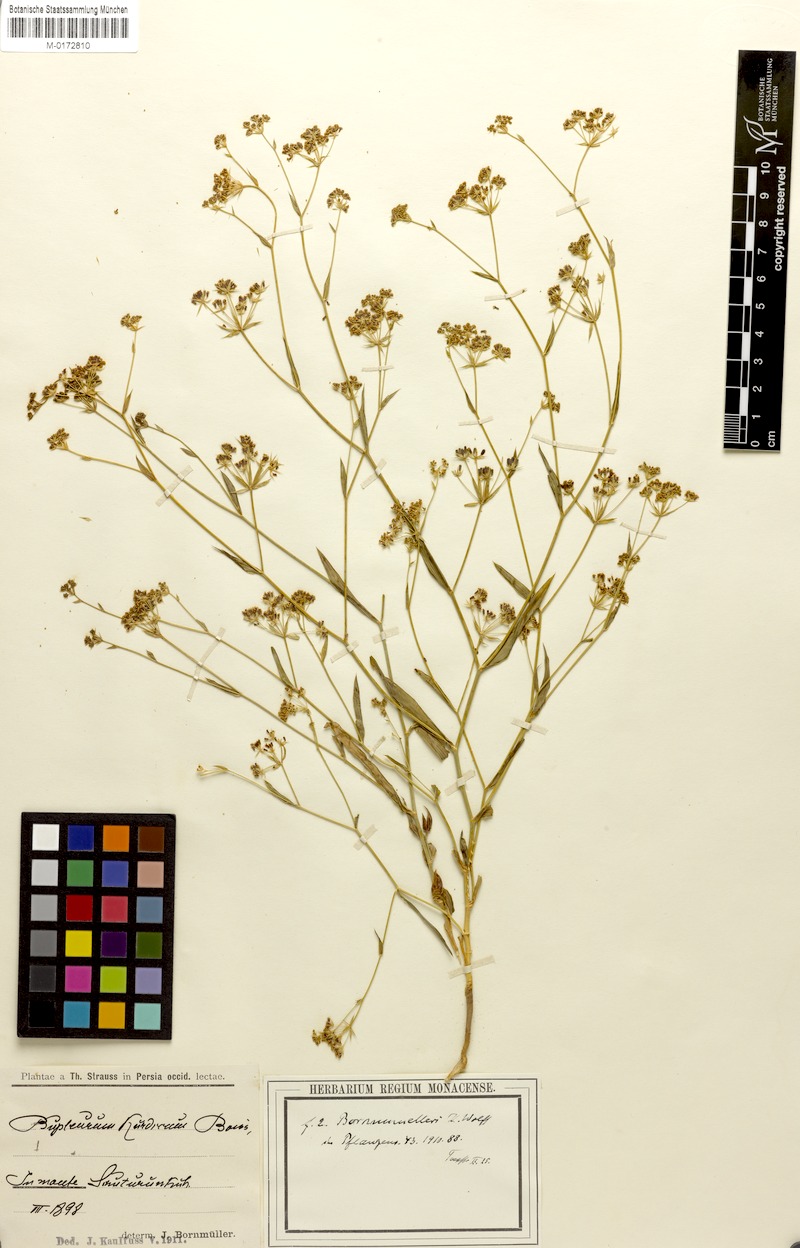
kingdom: Plantae
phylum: Tracheophyta
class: Magnoliopsida
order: Apiales
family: Apiaceae
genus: Bupleurum
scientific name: Bupleurum kurdicum
